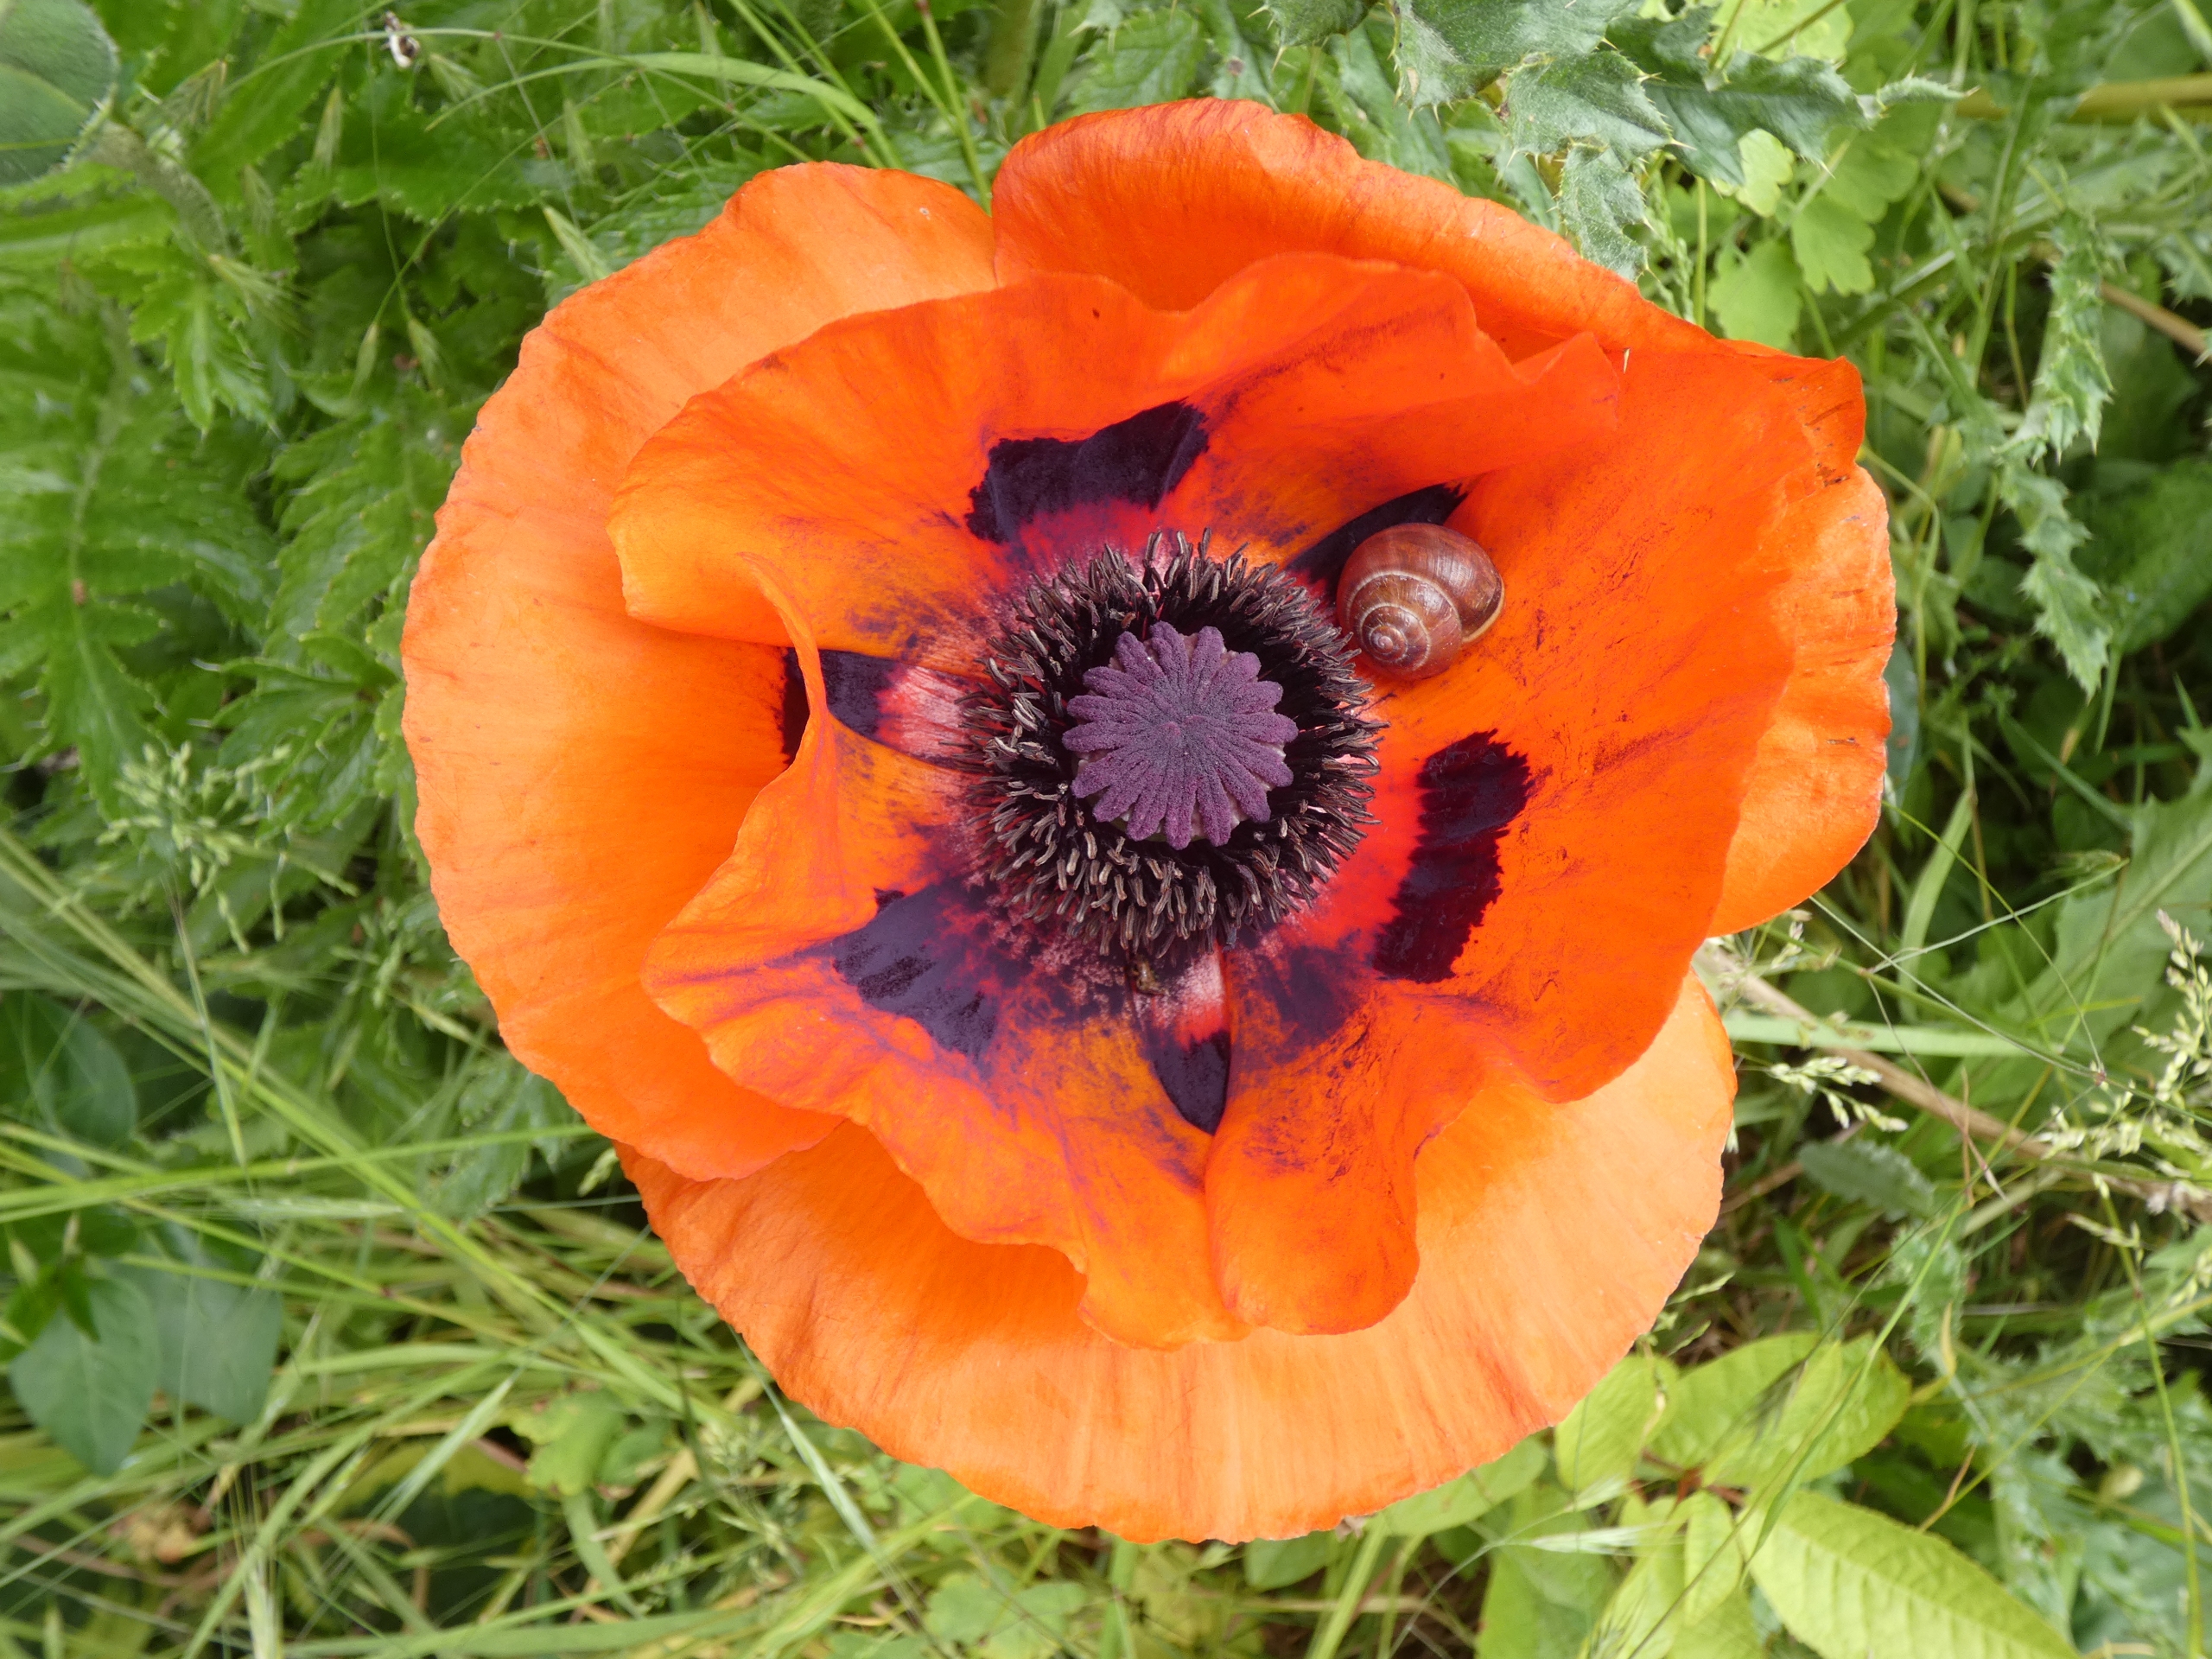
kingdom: Animalia
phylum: Mollusca
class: Gastropoda
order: Stylommatophora
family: Helicidae
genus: Cepaea
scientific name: Cepaea hortensis
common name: Havesnegl
